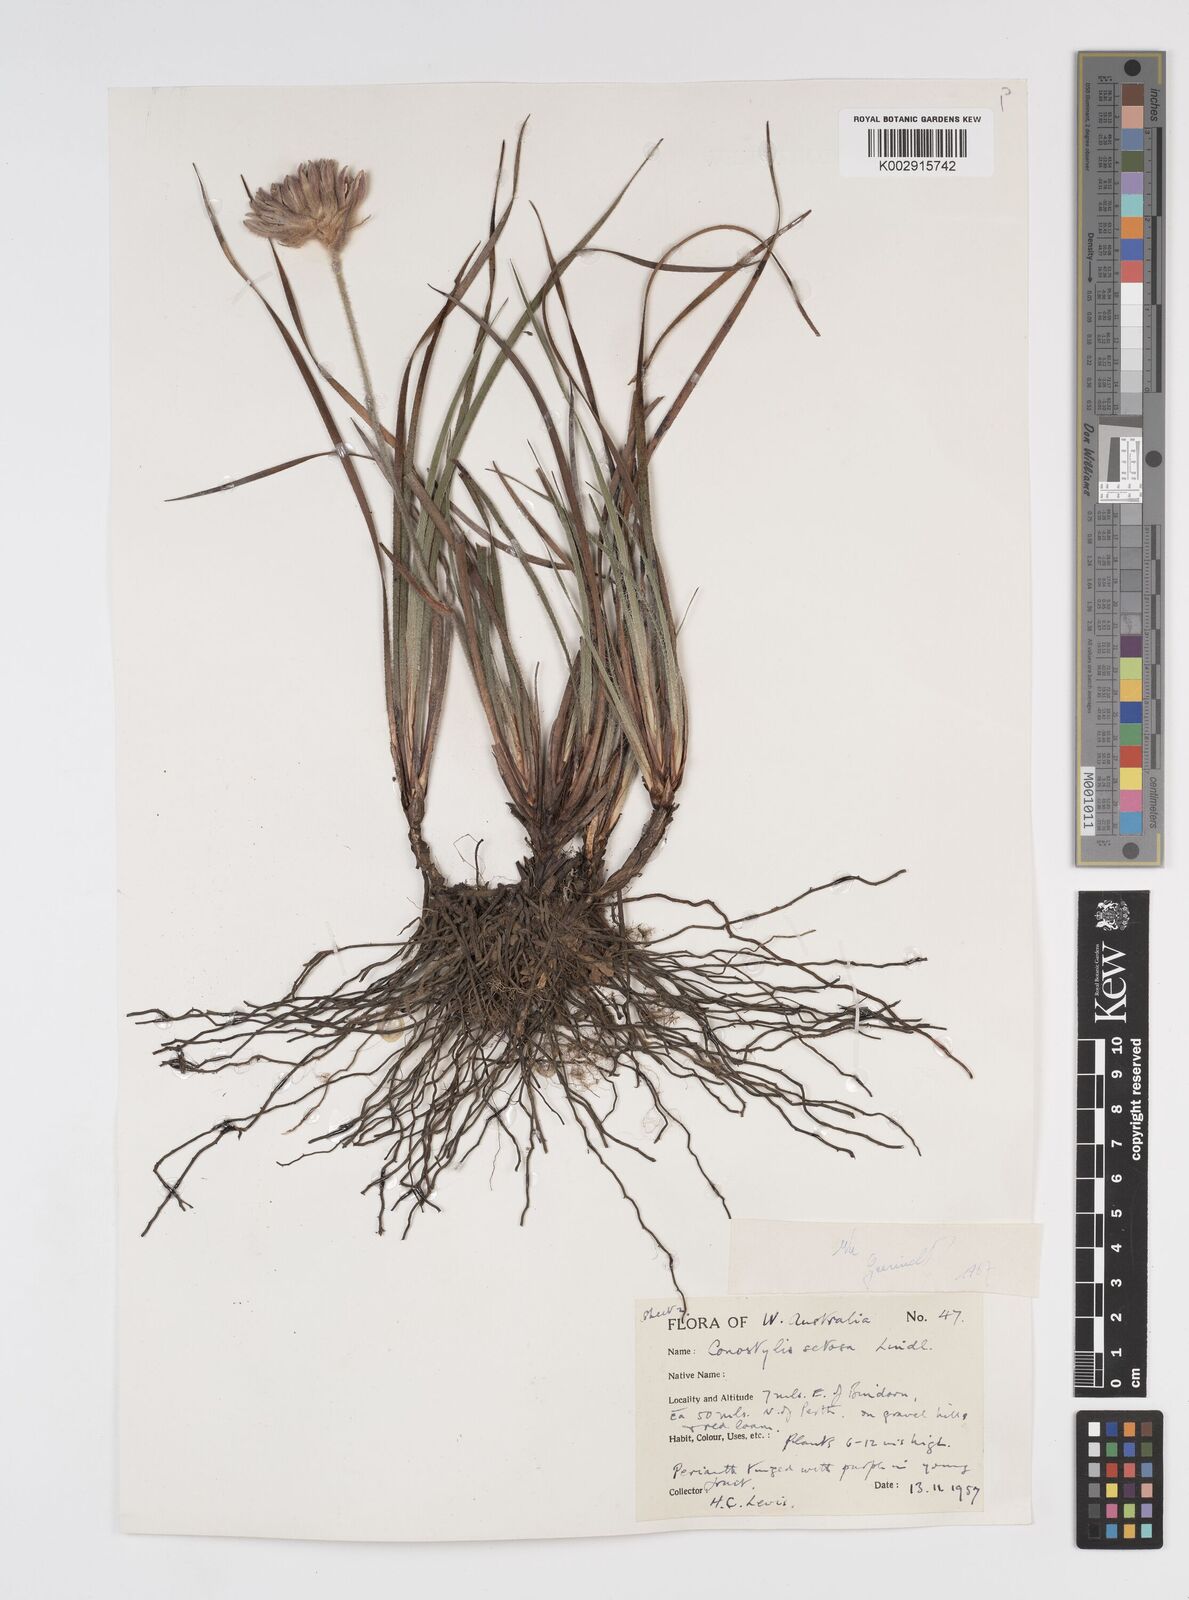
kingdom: Plantae
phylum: Tracheophyta
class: Liliopsida
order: Commelinales
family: Haemodoraceae
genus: Conostylis
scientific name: Conostylis setosa
